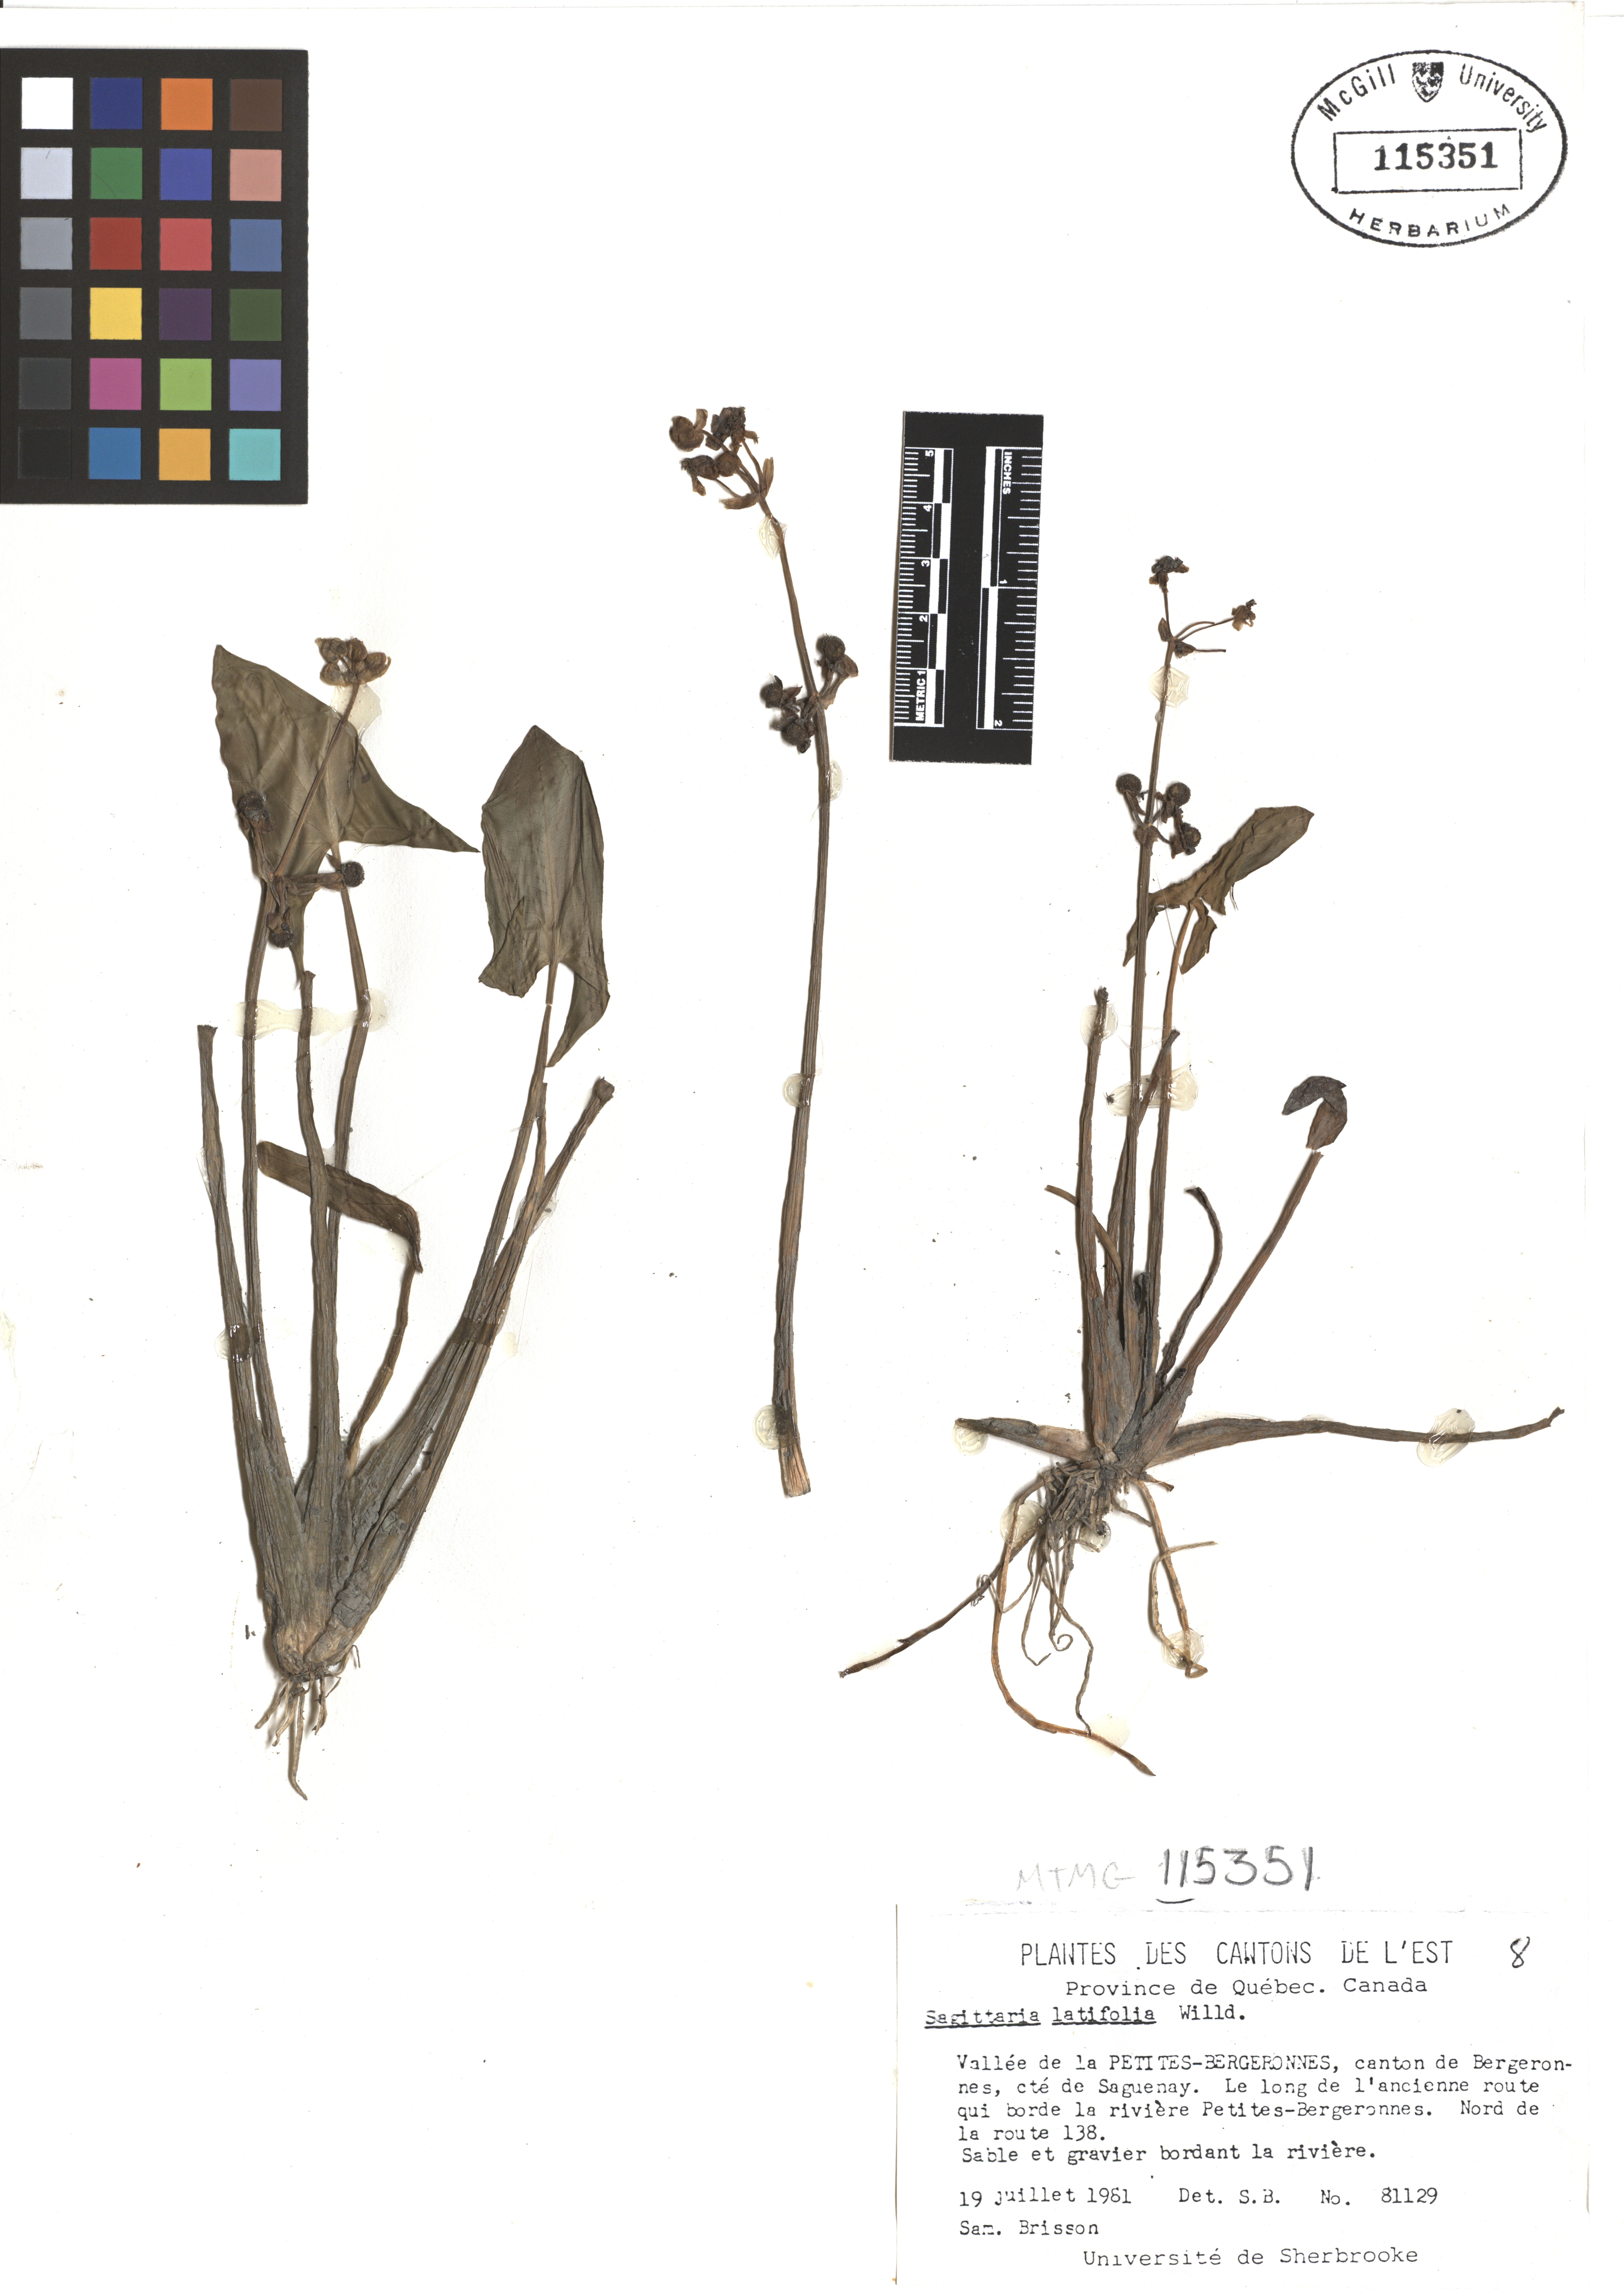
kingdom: Plantae
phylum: Tracheophyta
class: Liliopsida
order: Alismatales
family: Alismataceae
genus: Sagittaria
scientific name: Sagittaria latifolia
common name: Duck-potato
